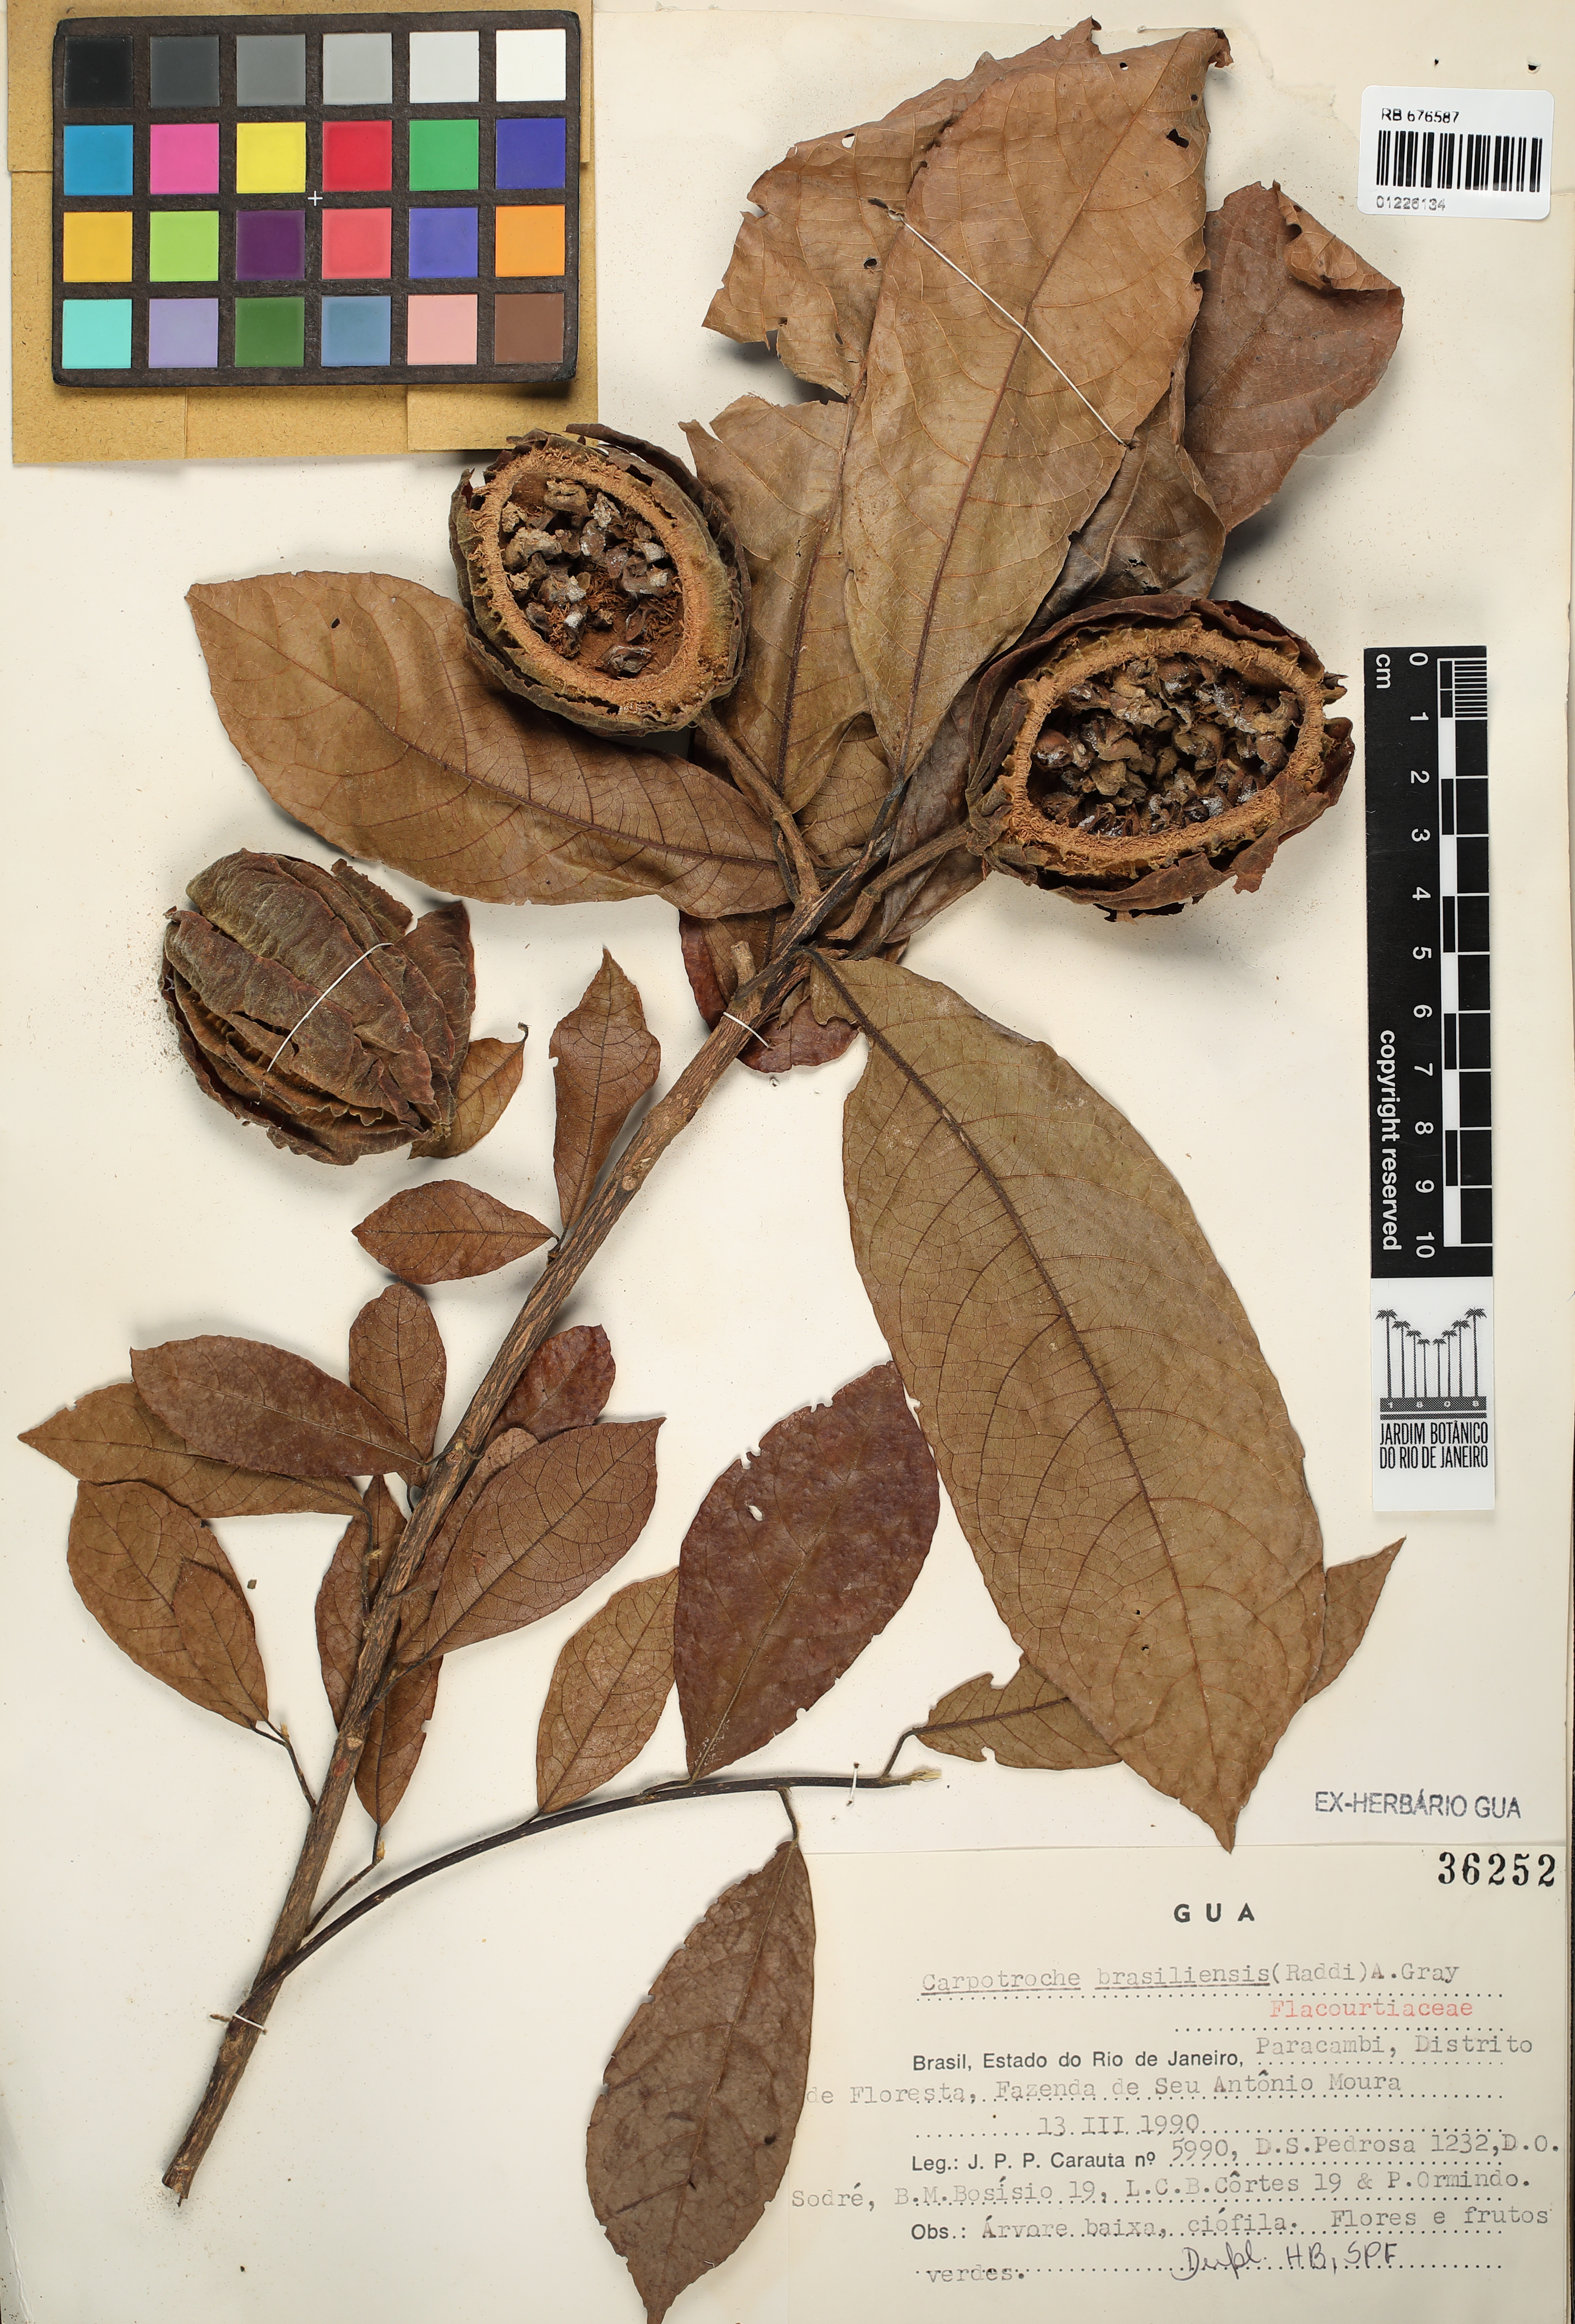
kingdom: Plantae
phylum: Tracheophyta
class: Magnoliopsida
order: Malpighiales
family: Achariaceae
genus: Carpotroche
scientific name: Carpotroche brasiliensis
